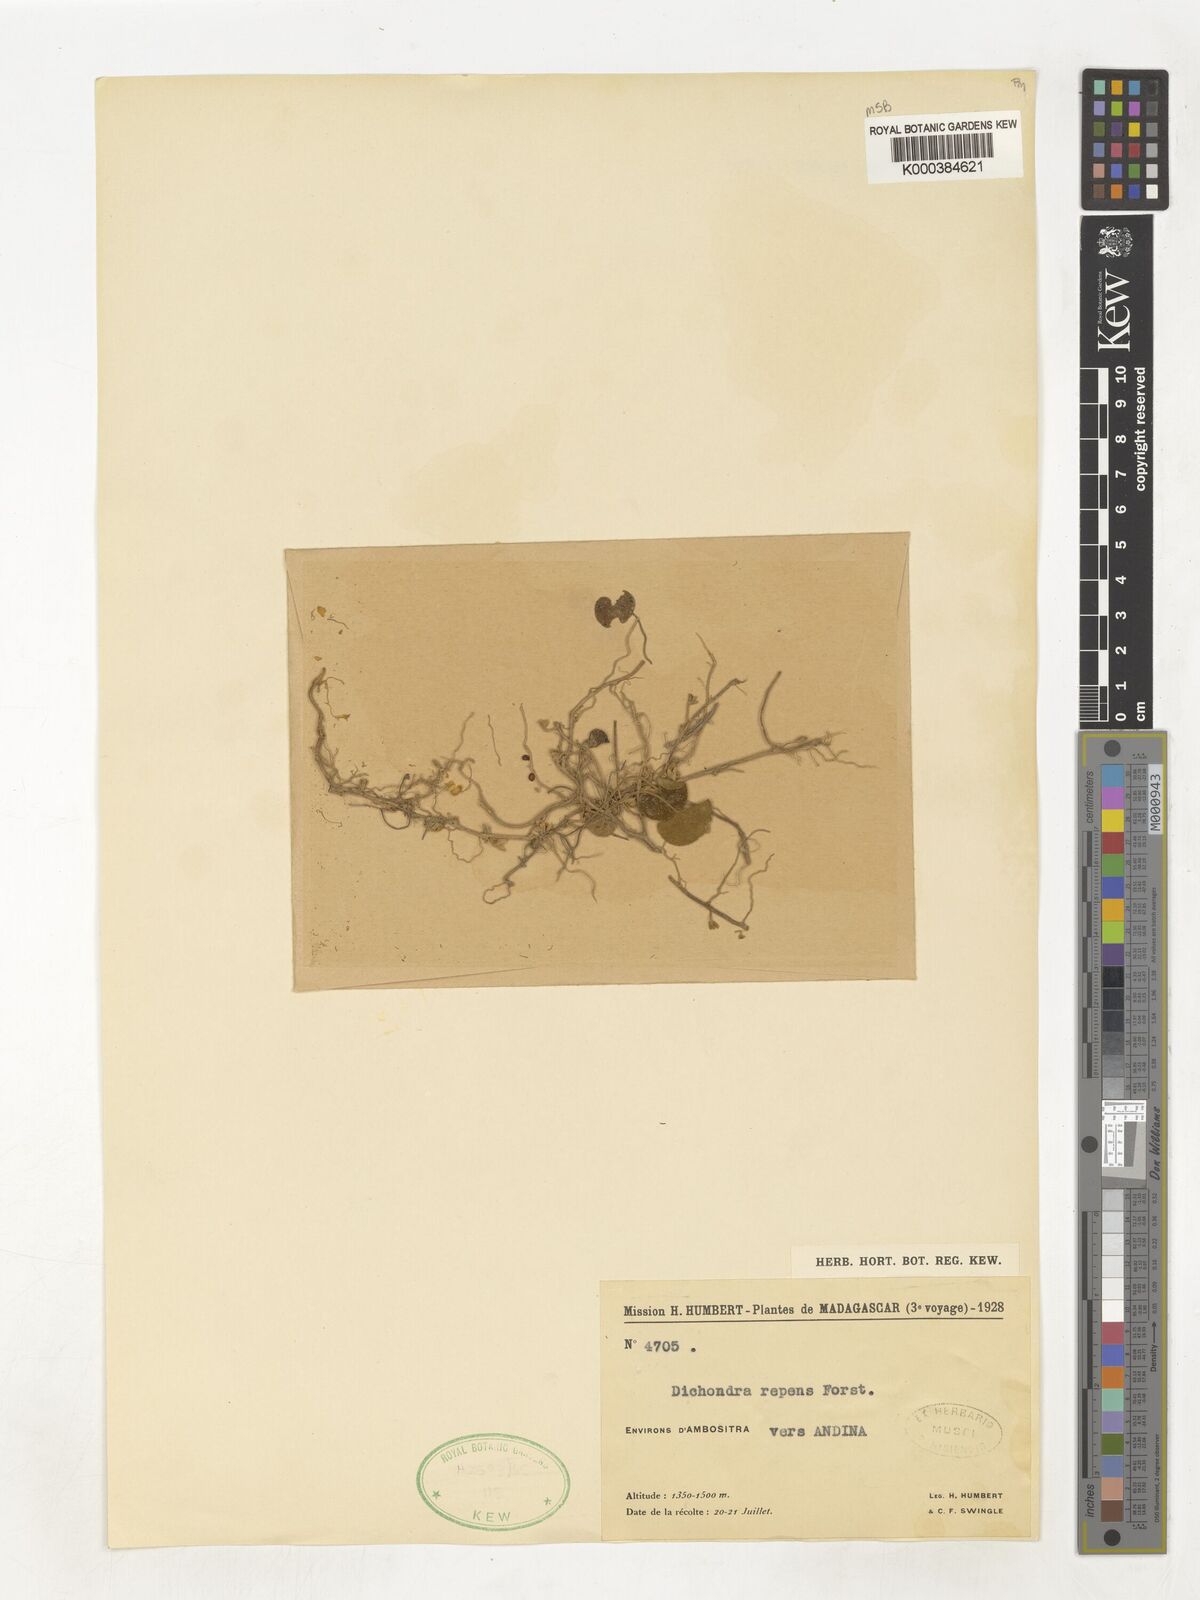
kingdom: Plantae
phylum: Tracheophyta
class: Magnoliopsida
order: Solanales
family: Convolvulaceae
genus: Dichondra
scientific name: Dichondra repens
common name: Kidneyweed
